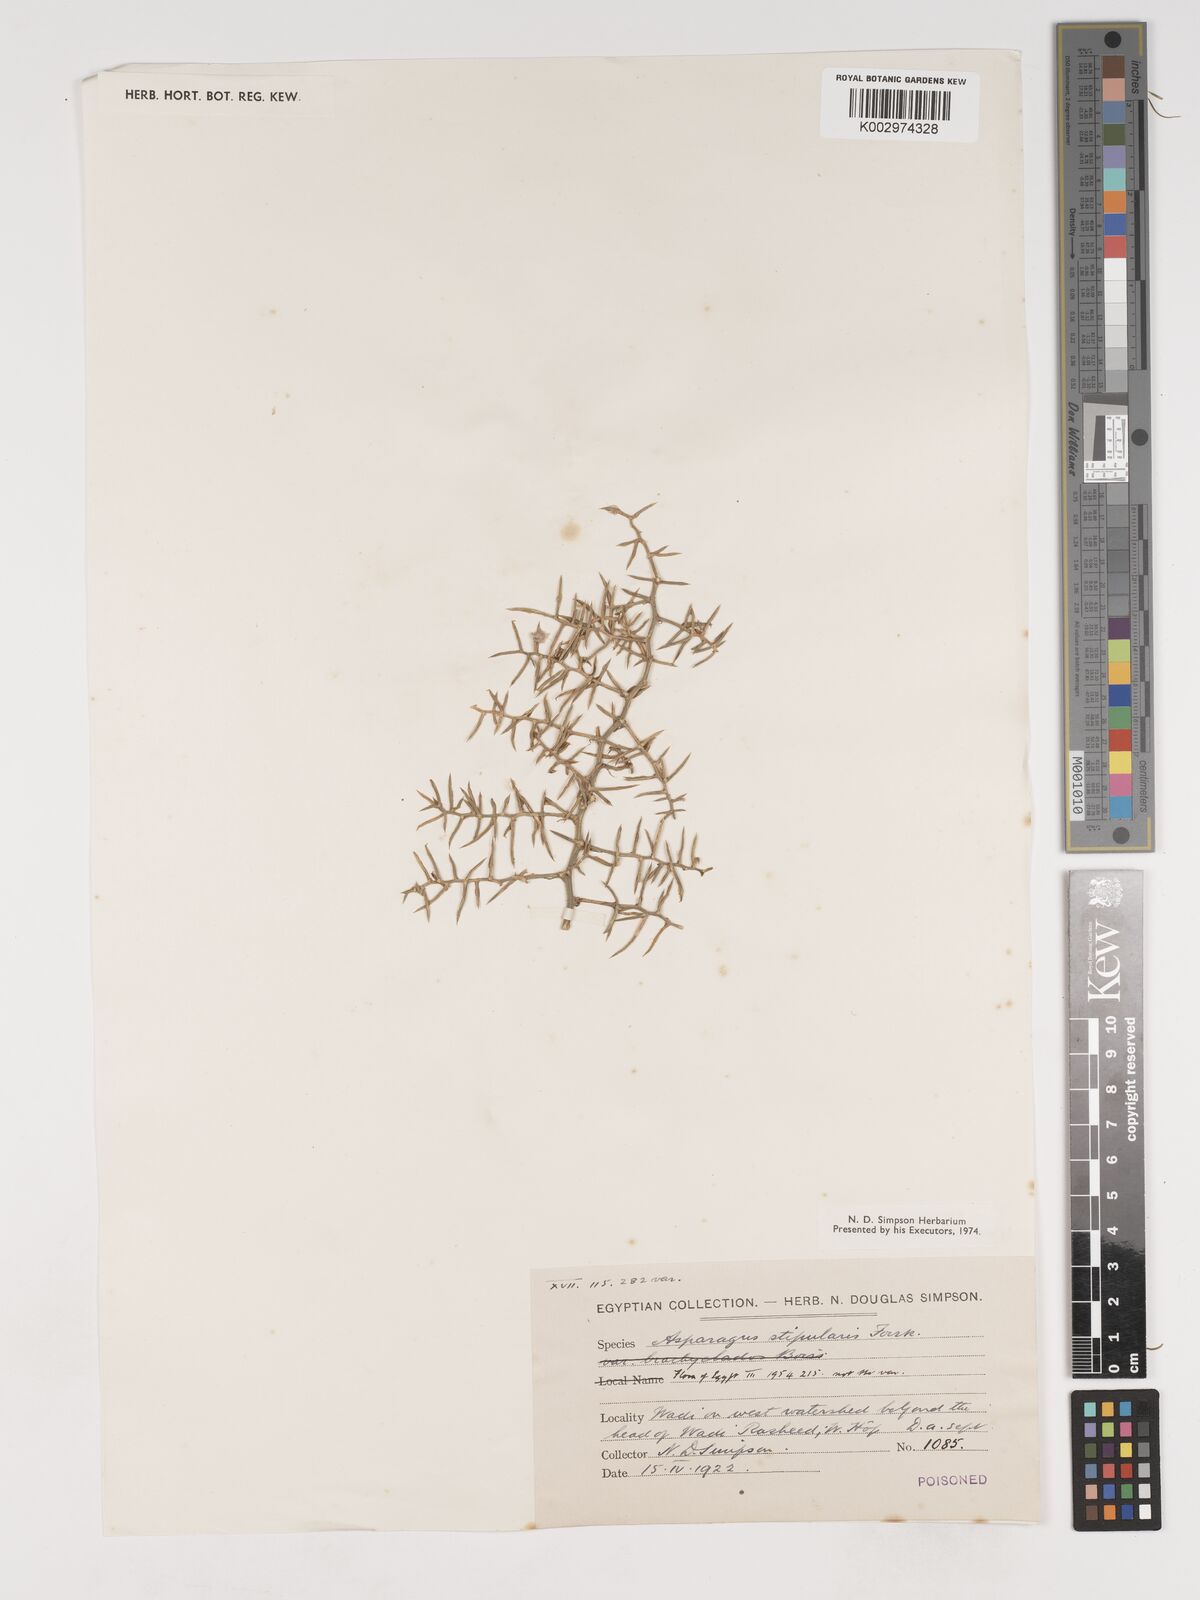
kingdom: Plantae
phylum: Tracheophyta
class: Liliopsida
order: Asparagales
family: Asparagaceae
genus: Asparagus
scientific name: Asparagus aphyllus
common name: Mediterranean asparagus
